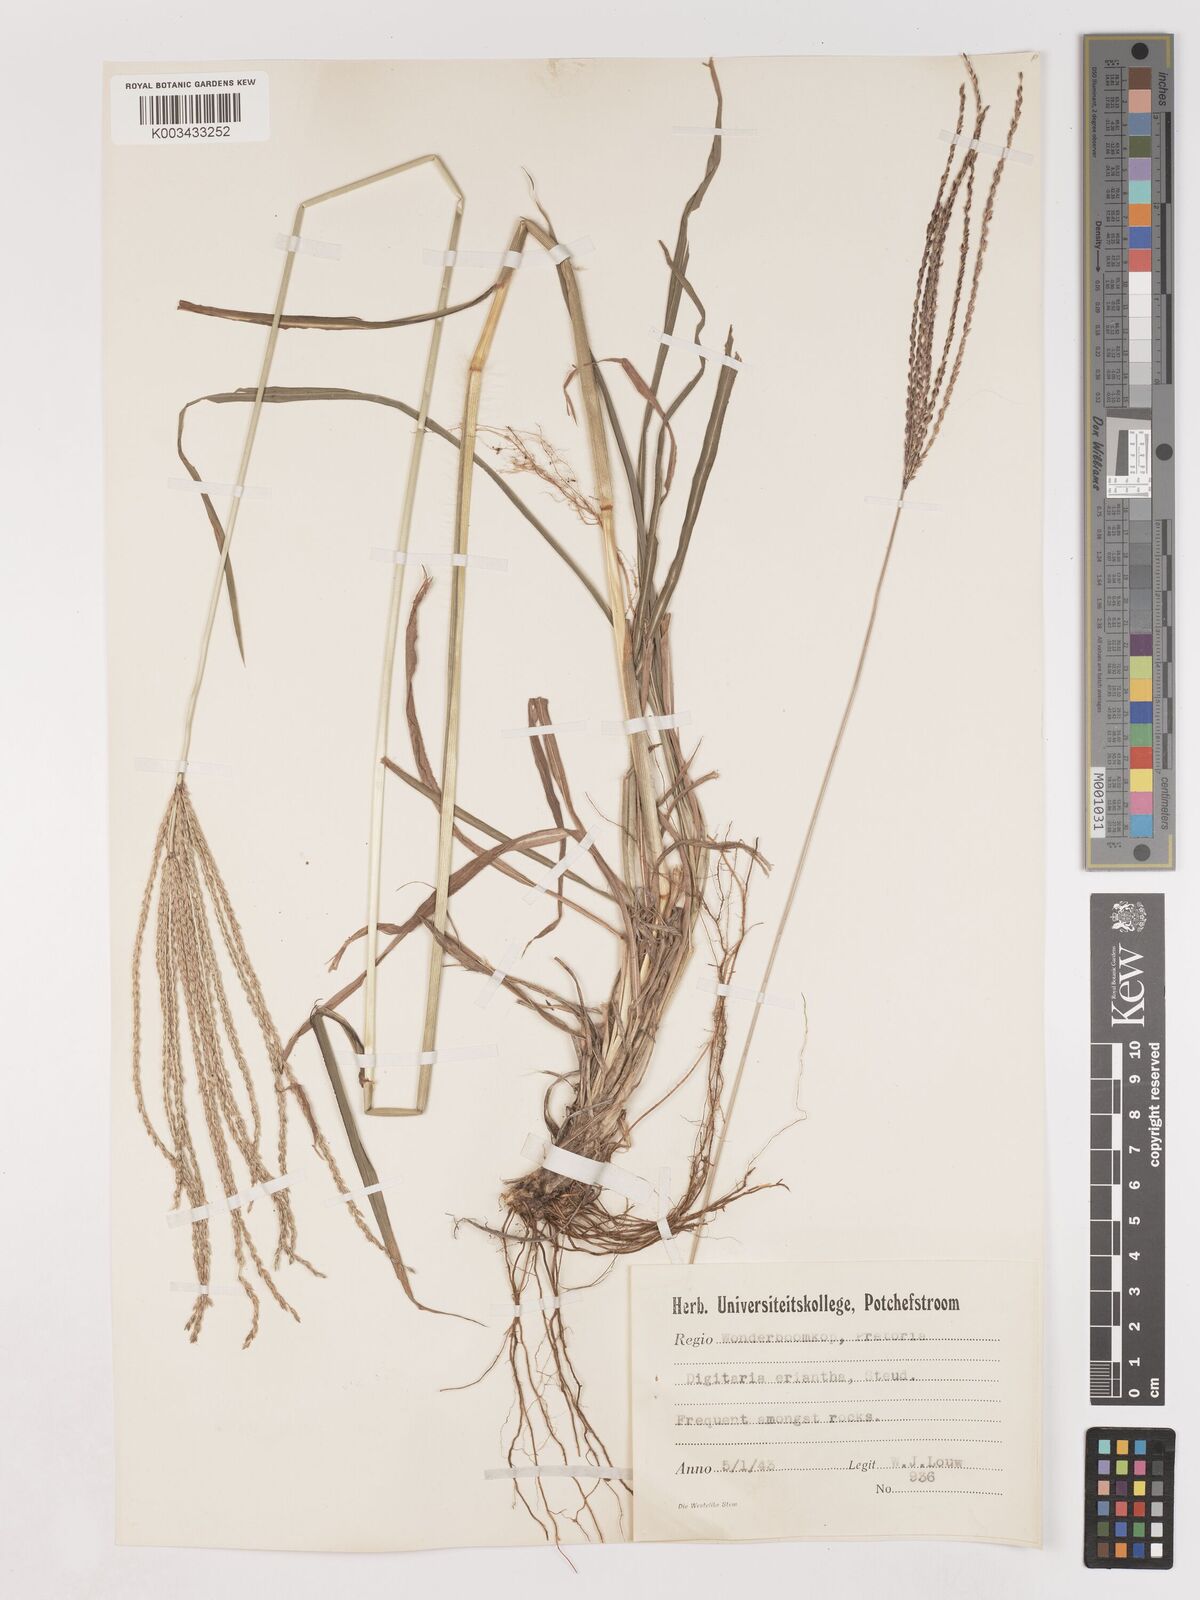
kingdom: Plantae
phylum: Tracheophyta
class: Liliopsida
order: Poales
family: Poaceae
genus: Digitaria
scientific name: Digitaria eriantha
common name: Digitgrass
